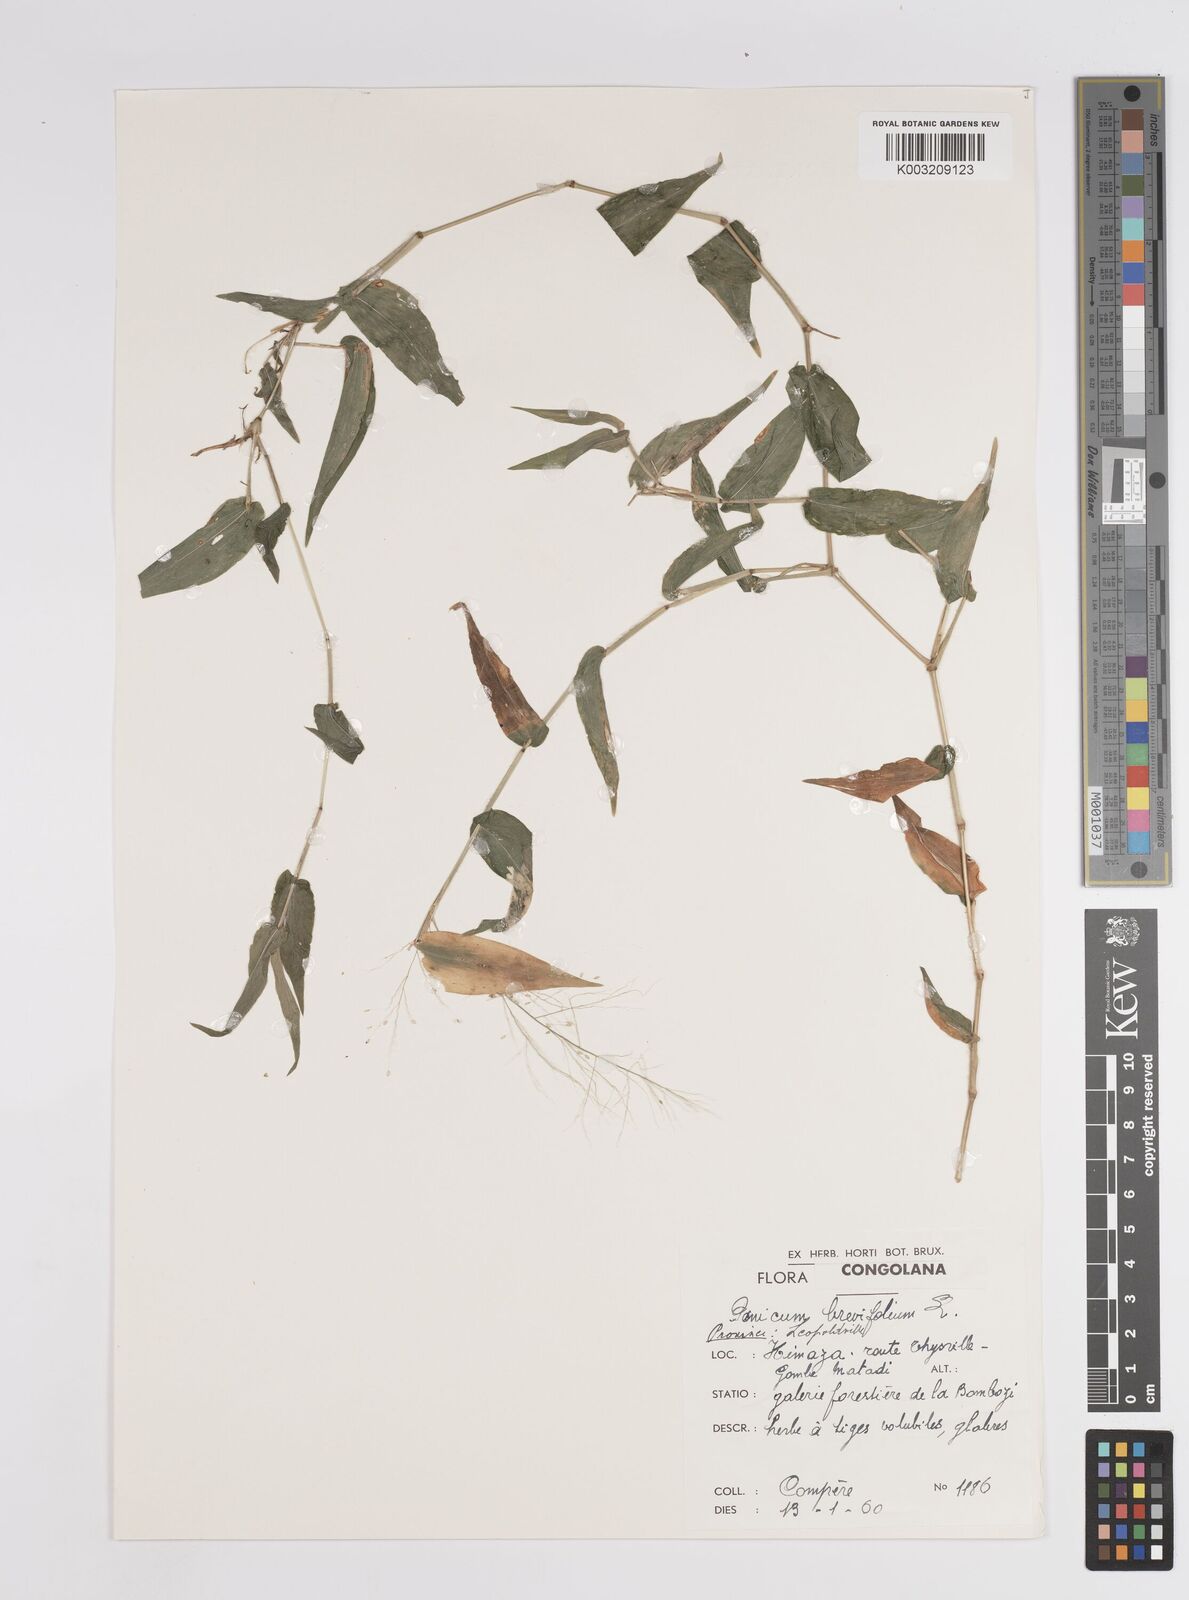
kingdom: Plantae
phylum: Tracheophyta
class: Liliopsida
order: Poales
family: Poaceae
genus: Panicum
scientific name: Panicum brevifolium
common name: Shortleaf panic grass
